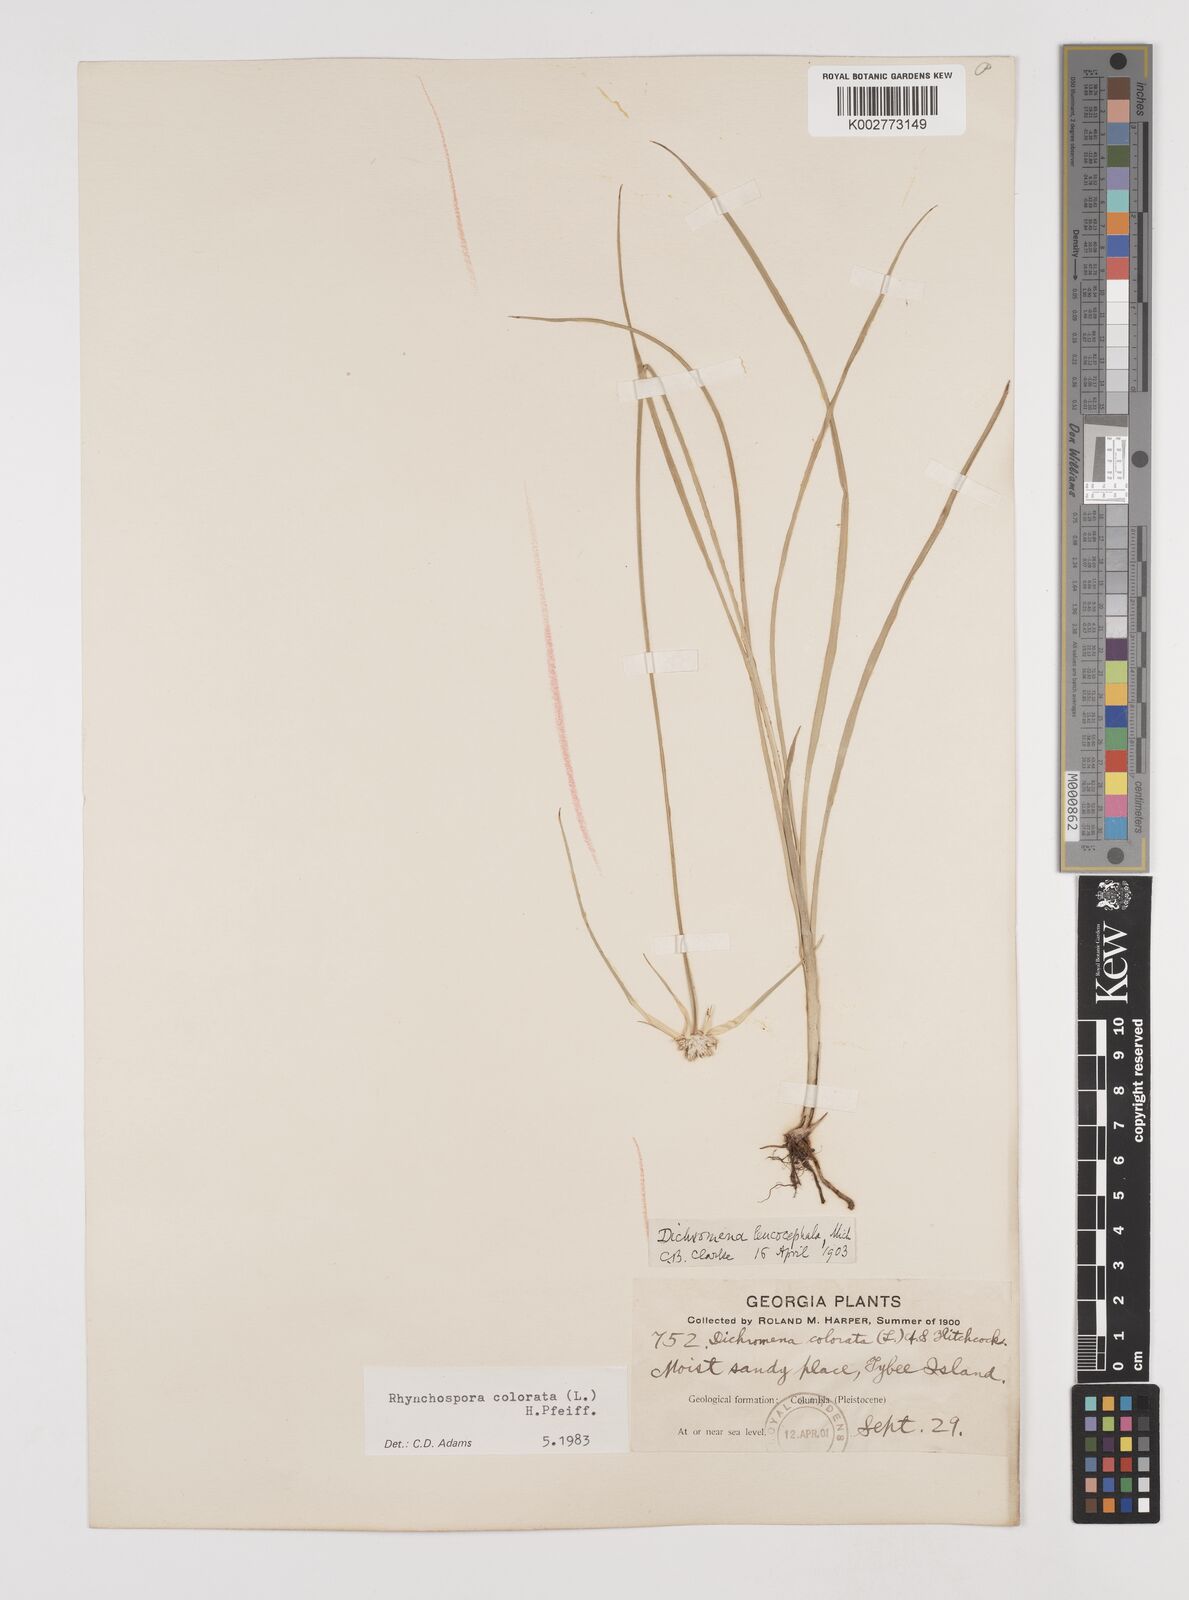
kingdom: Plantae
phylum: Tracheophyta
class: Liliopsida
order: Poales
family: Cyperaceae
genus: Rhynchospora
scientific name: Rhynchospora colorata
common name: Star sedge
